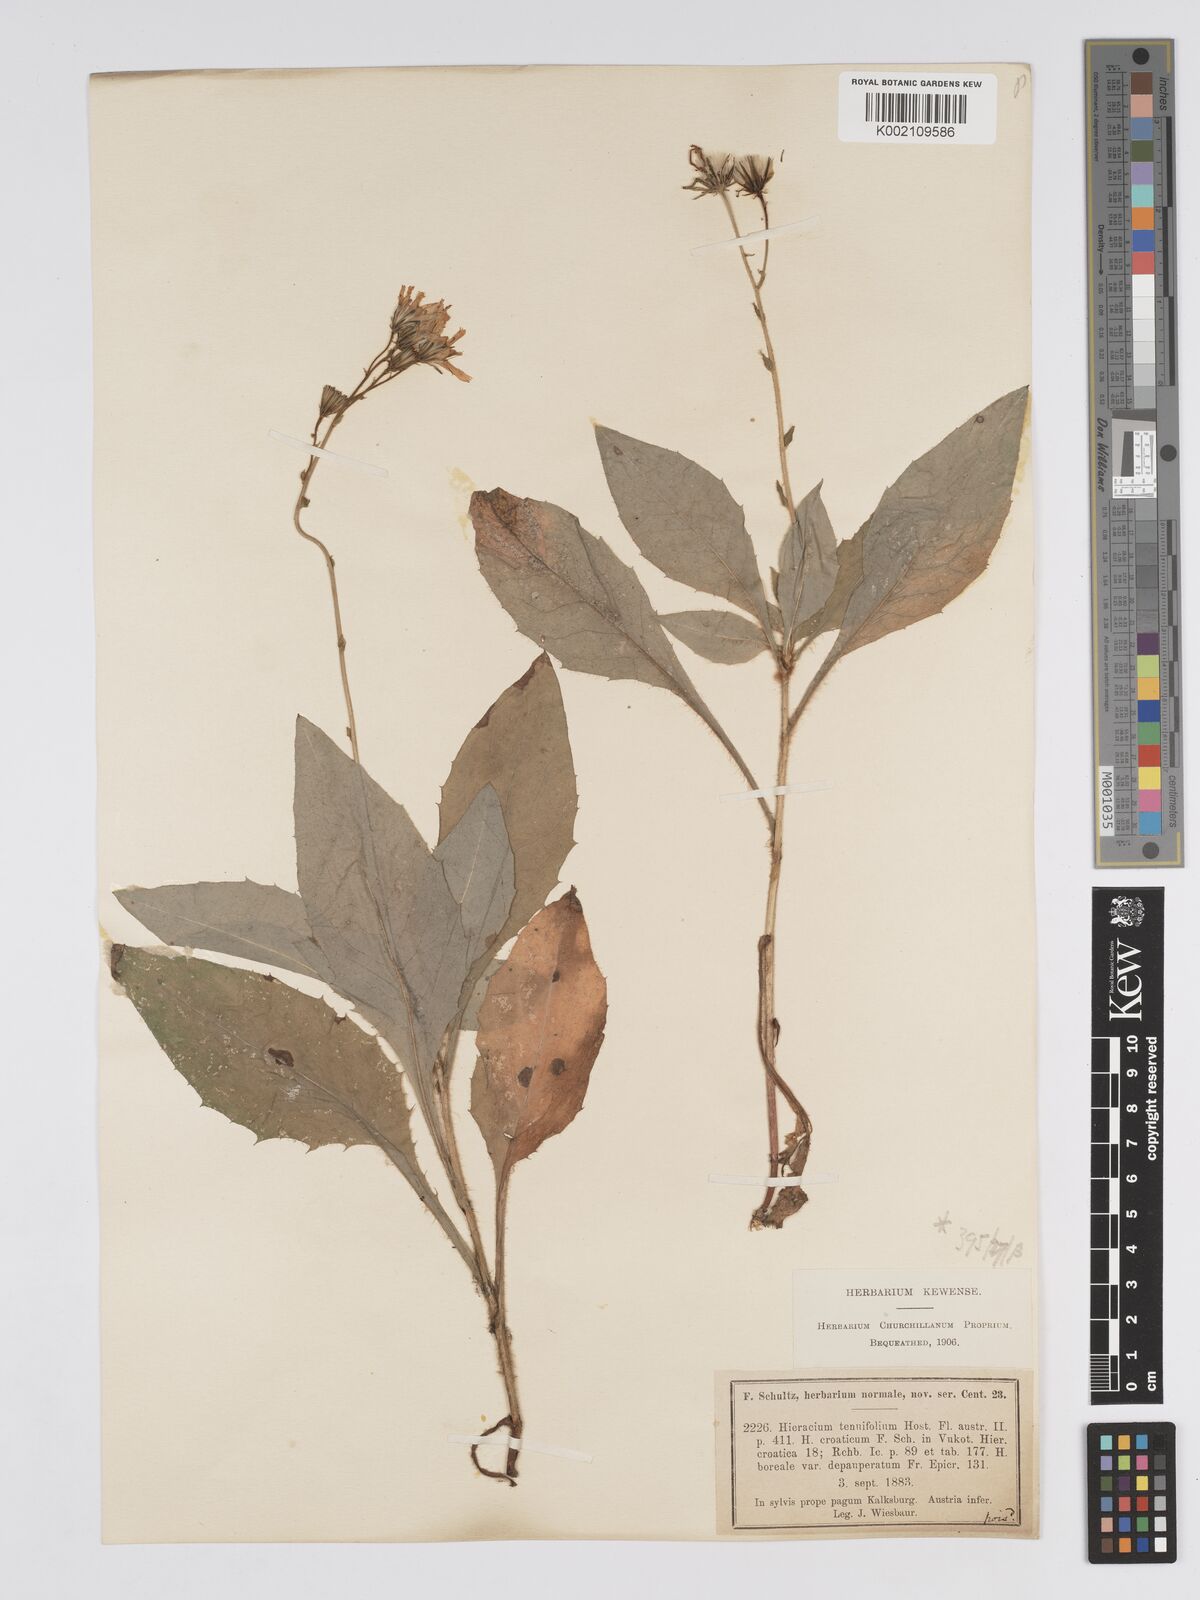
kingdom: Plantae
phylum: Tracheophyta
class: Magnoliopsida
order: Asterales
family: Asteraceae
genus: Hieracium
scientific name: Hieracium racemosum
